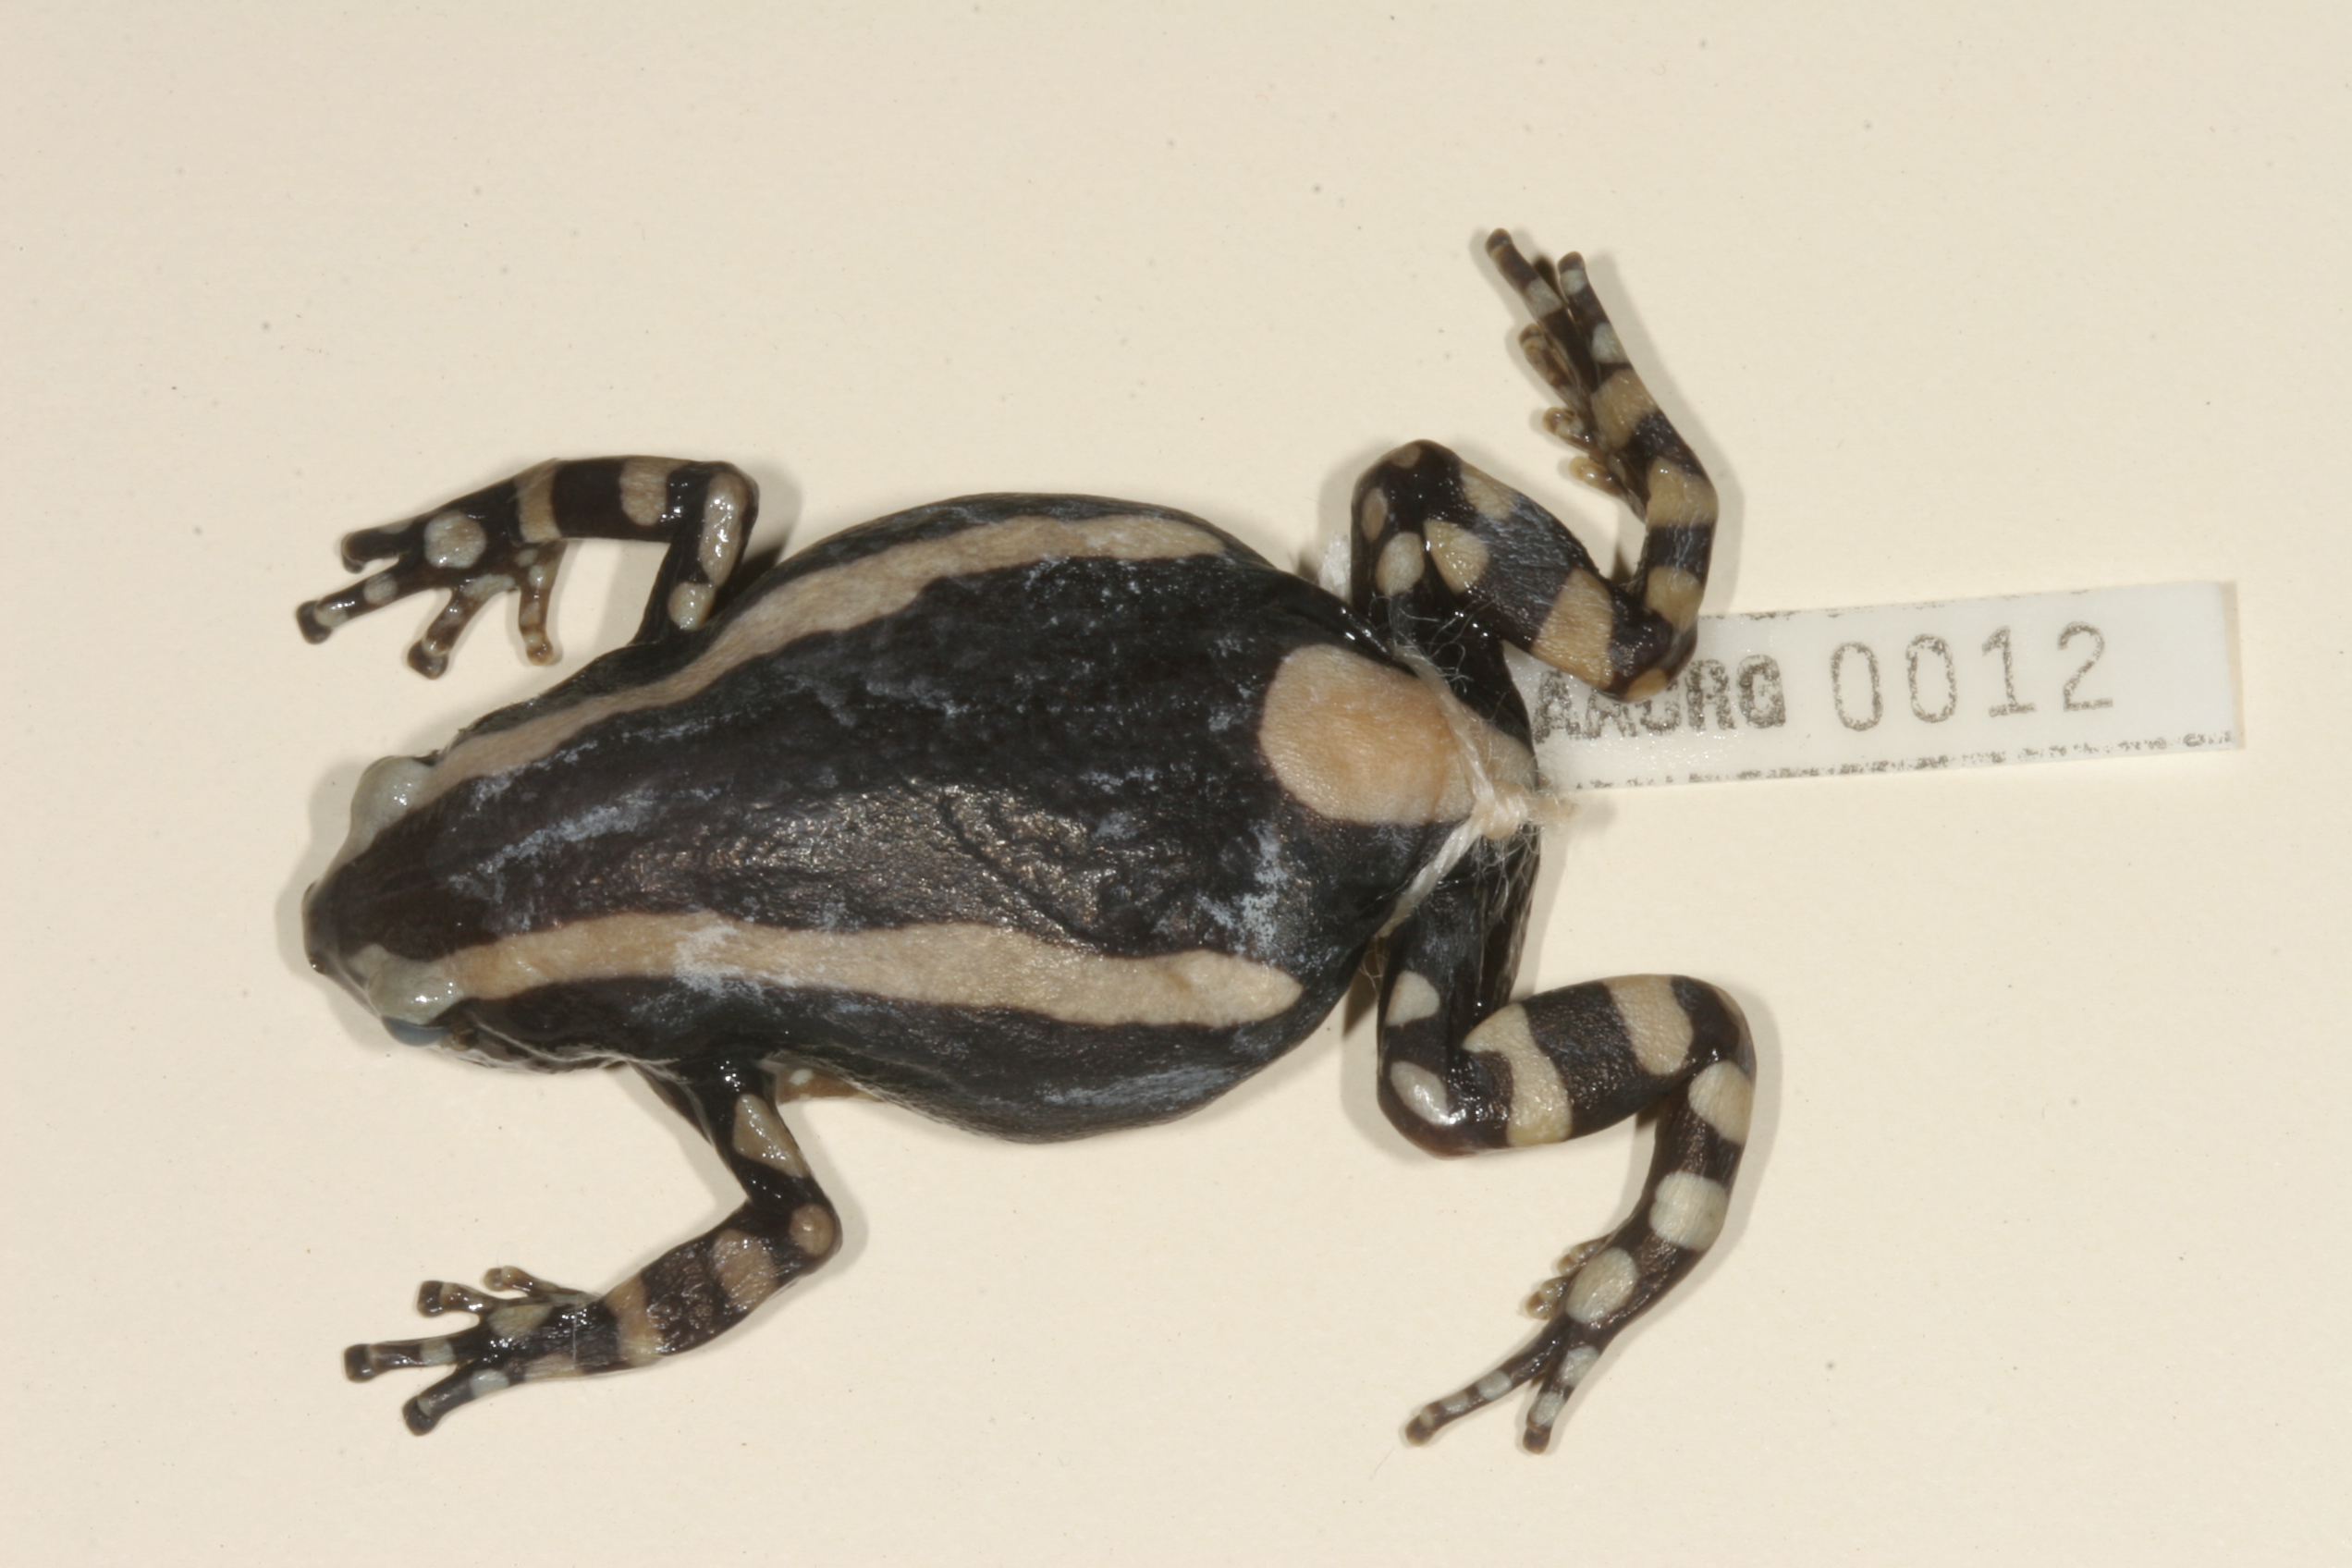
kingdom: Animalia
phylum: Chordata
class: Amphibia
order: Anura
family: Microhylidae
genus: Phrynomantis
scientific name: Phrynomantis bifasciatus
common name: Banded rubber frog
